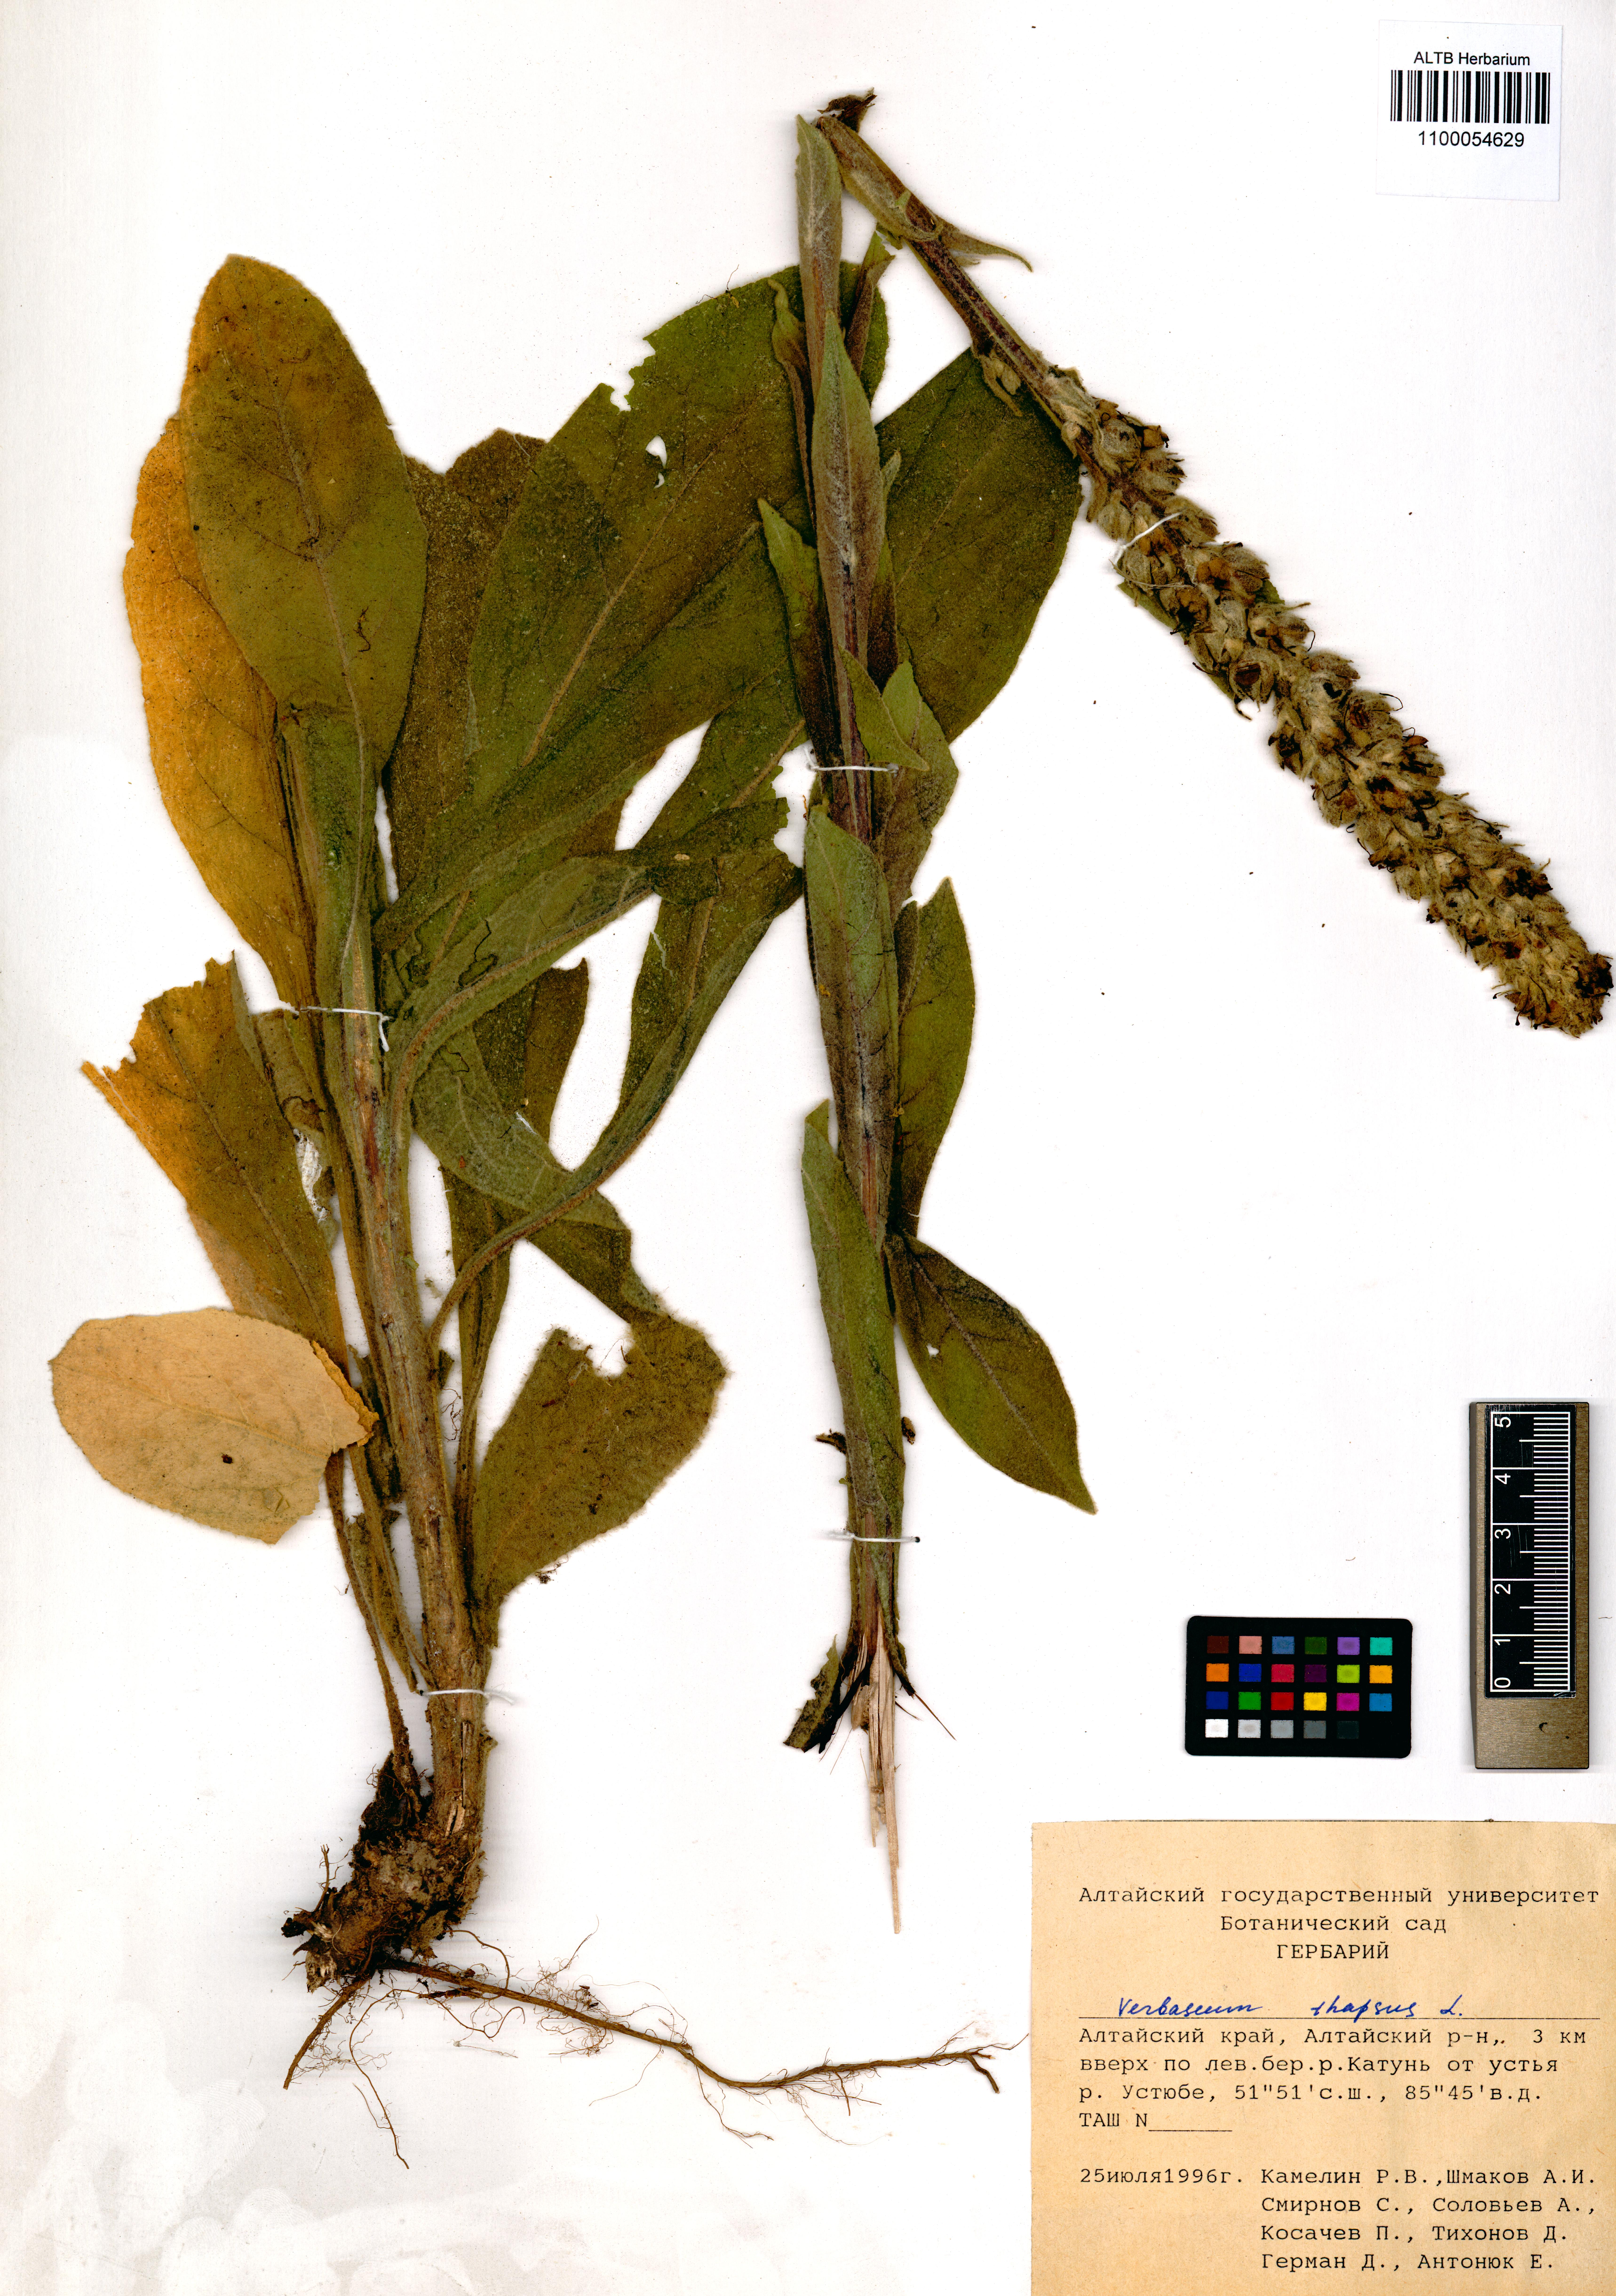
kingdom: Plantae
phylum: Tracheophyta
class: Magnoliopsida
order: Lamiales
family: Scrophulariaceae
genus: Verbascum
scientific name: Verbascum thapsus
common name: Common mullein
